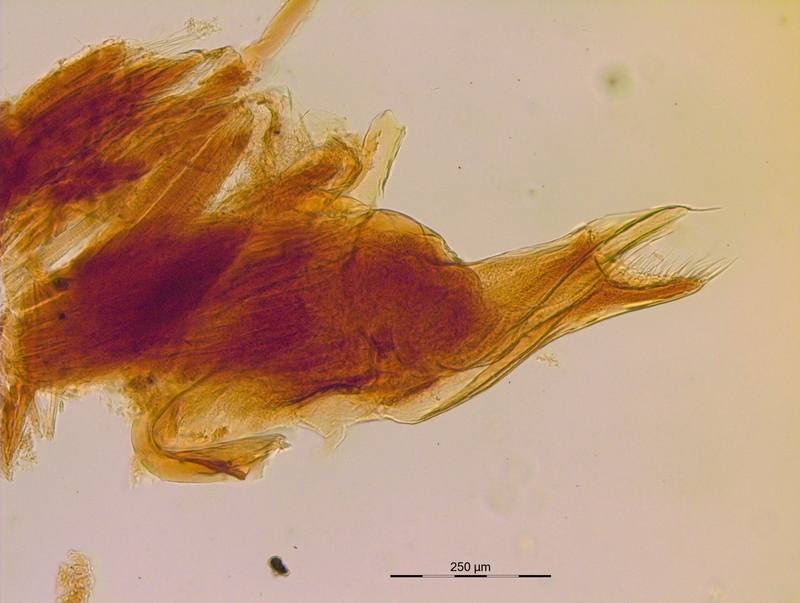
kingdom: Animalia
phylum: Arthropoda
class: Diplopoda
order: Julida
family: Mongoliulidae
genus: Paraprotopus
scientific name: Paraprotopus inferus
